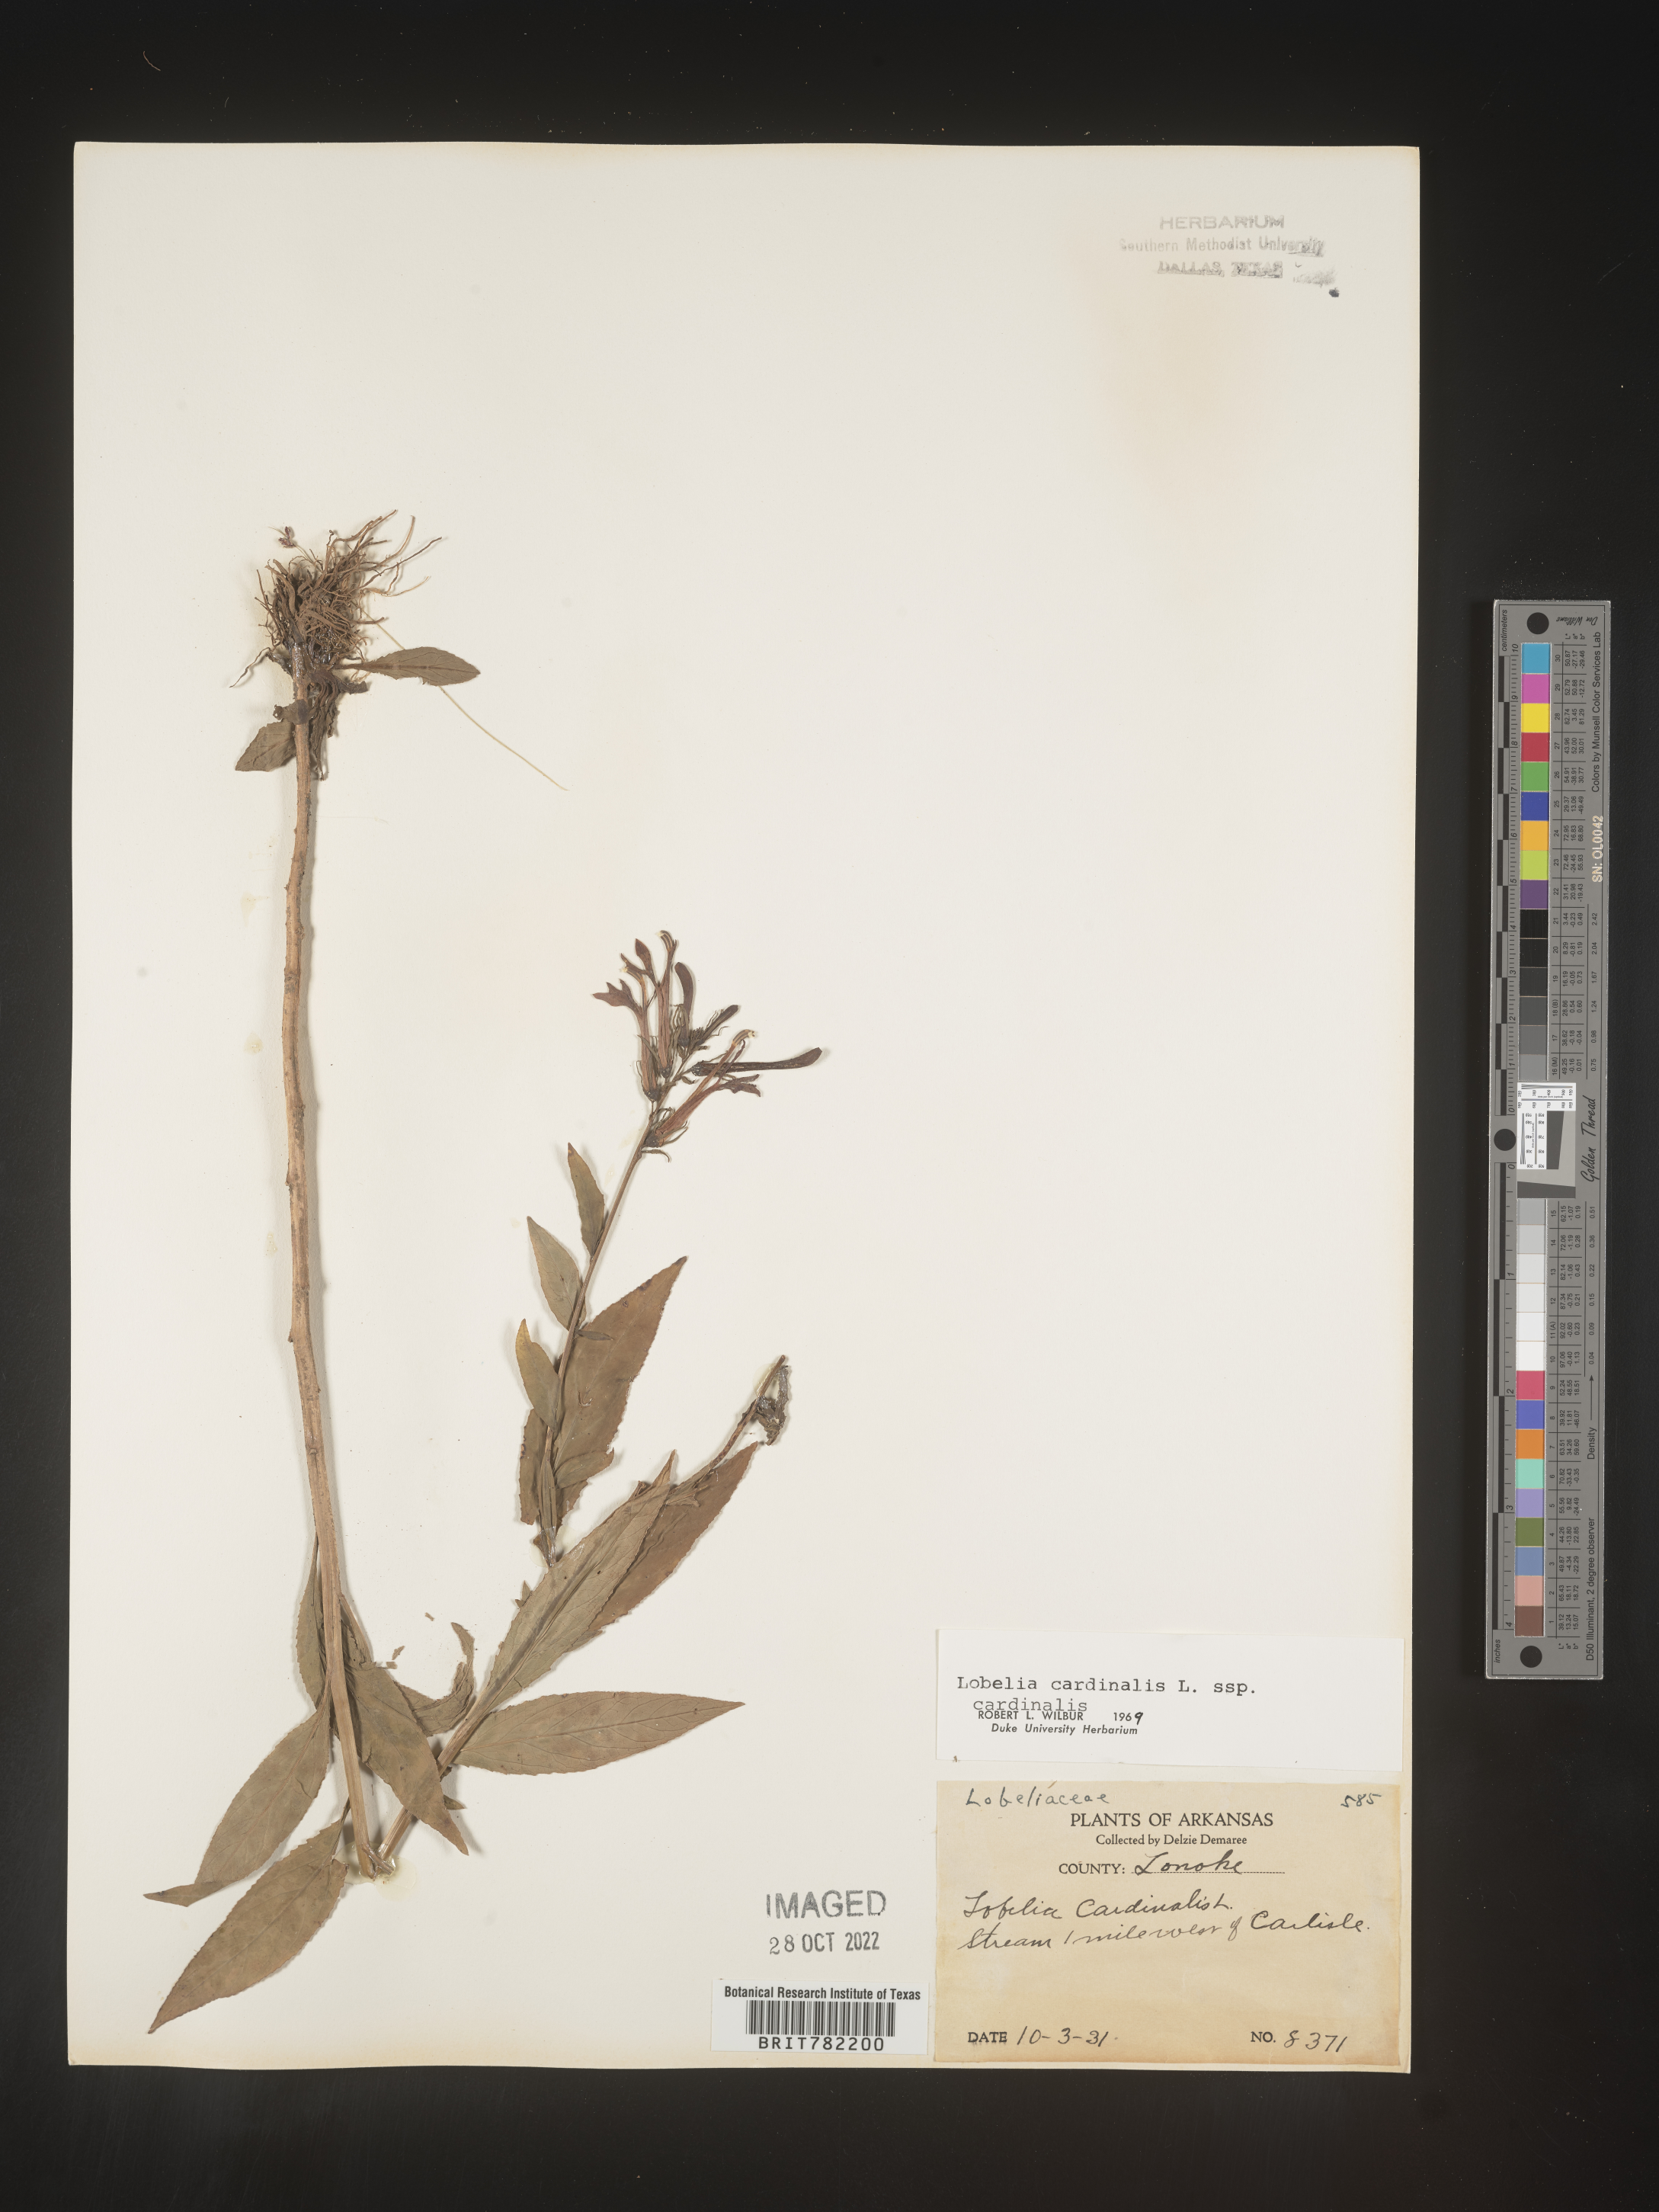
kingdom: Plantae
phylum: Tracheophyta
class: Magnoliopsida
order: Asterales
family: Campanulaceae
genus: Lobelia
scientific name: Lobelia cardinalis
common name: Cardinal flower
